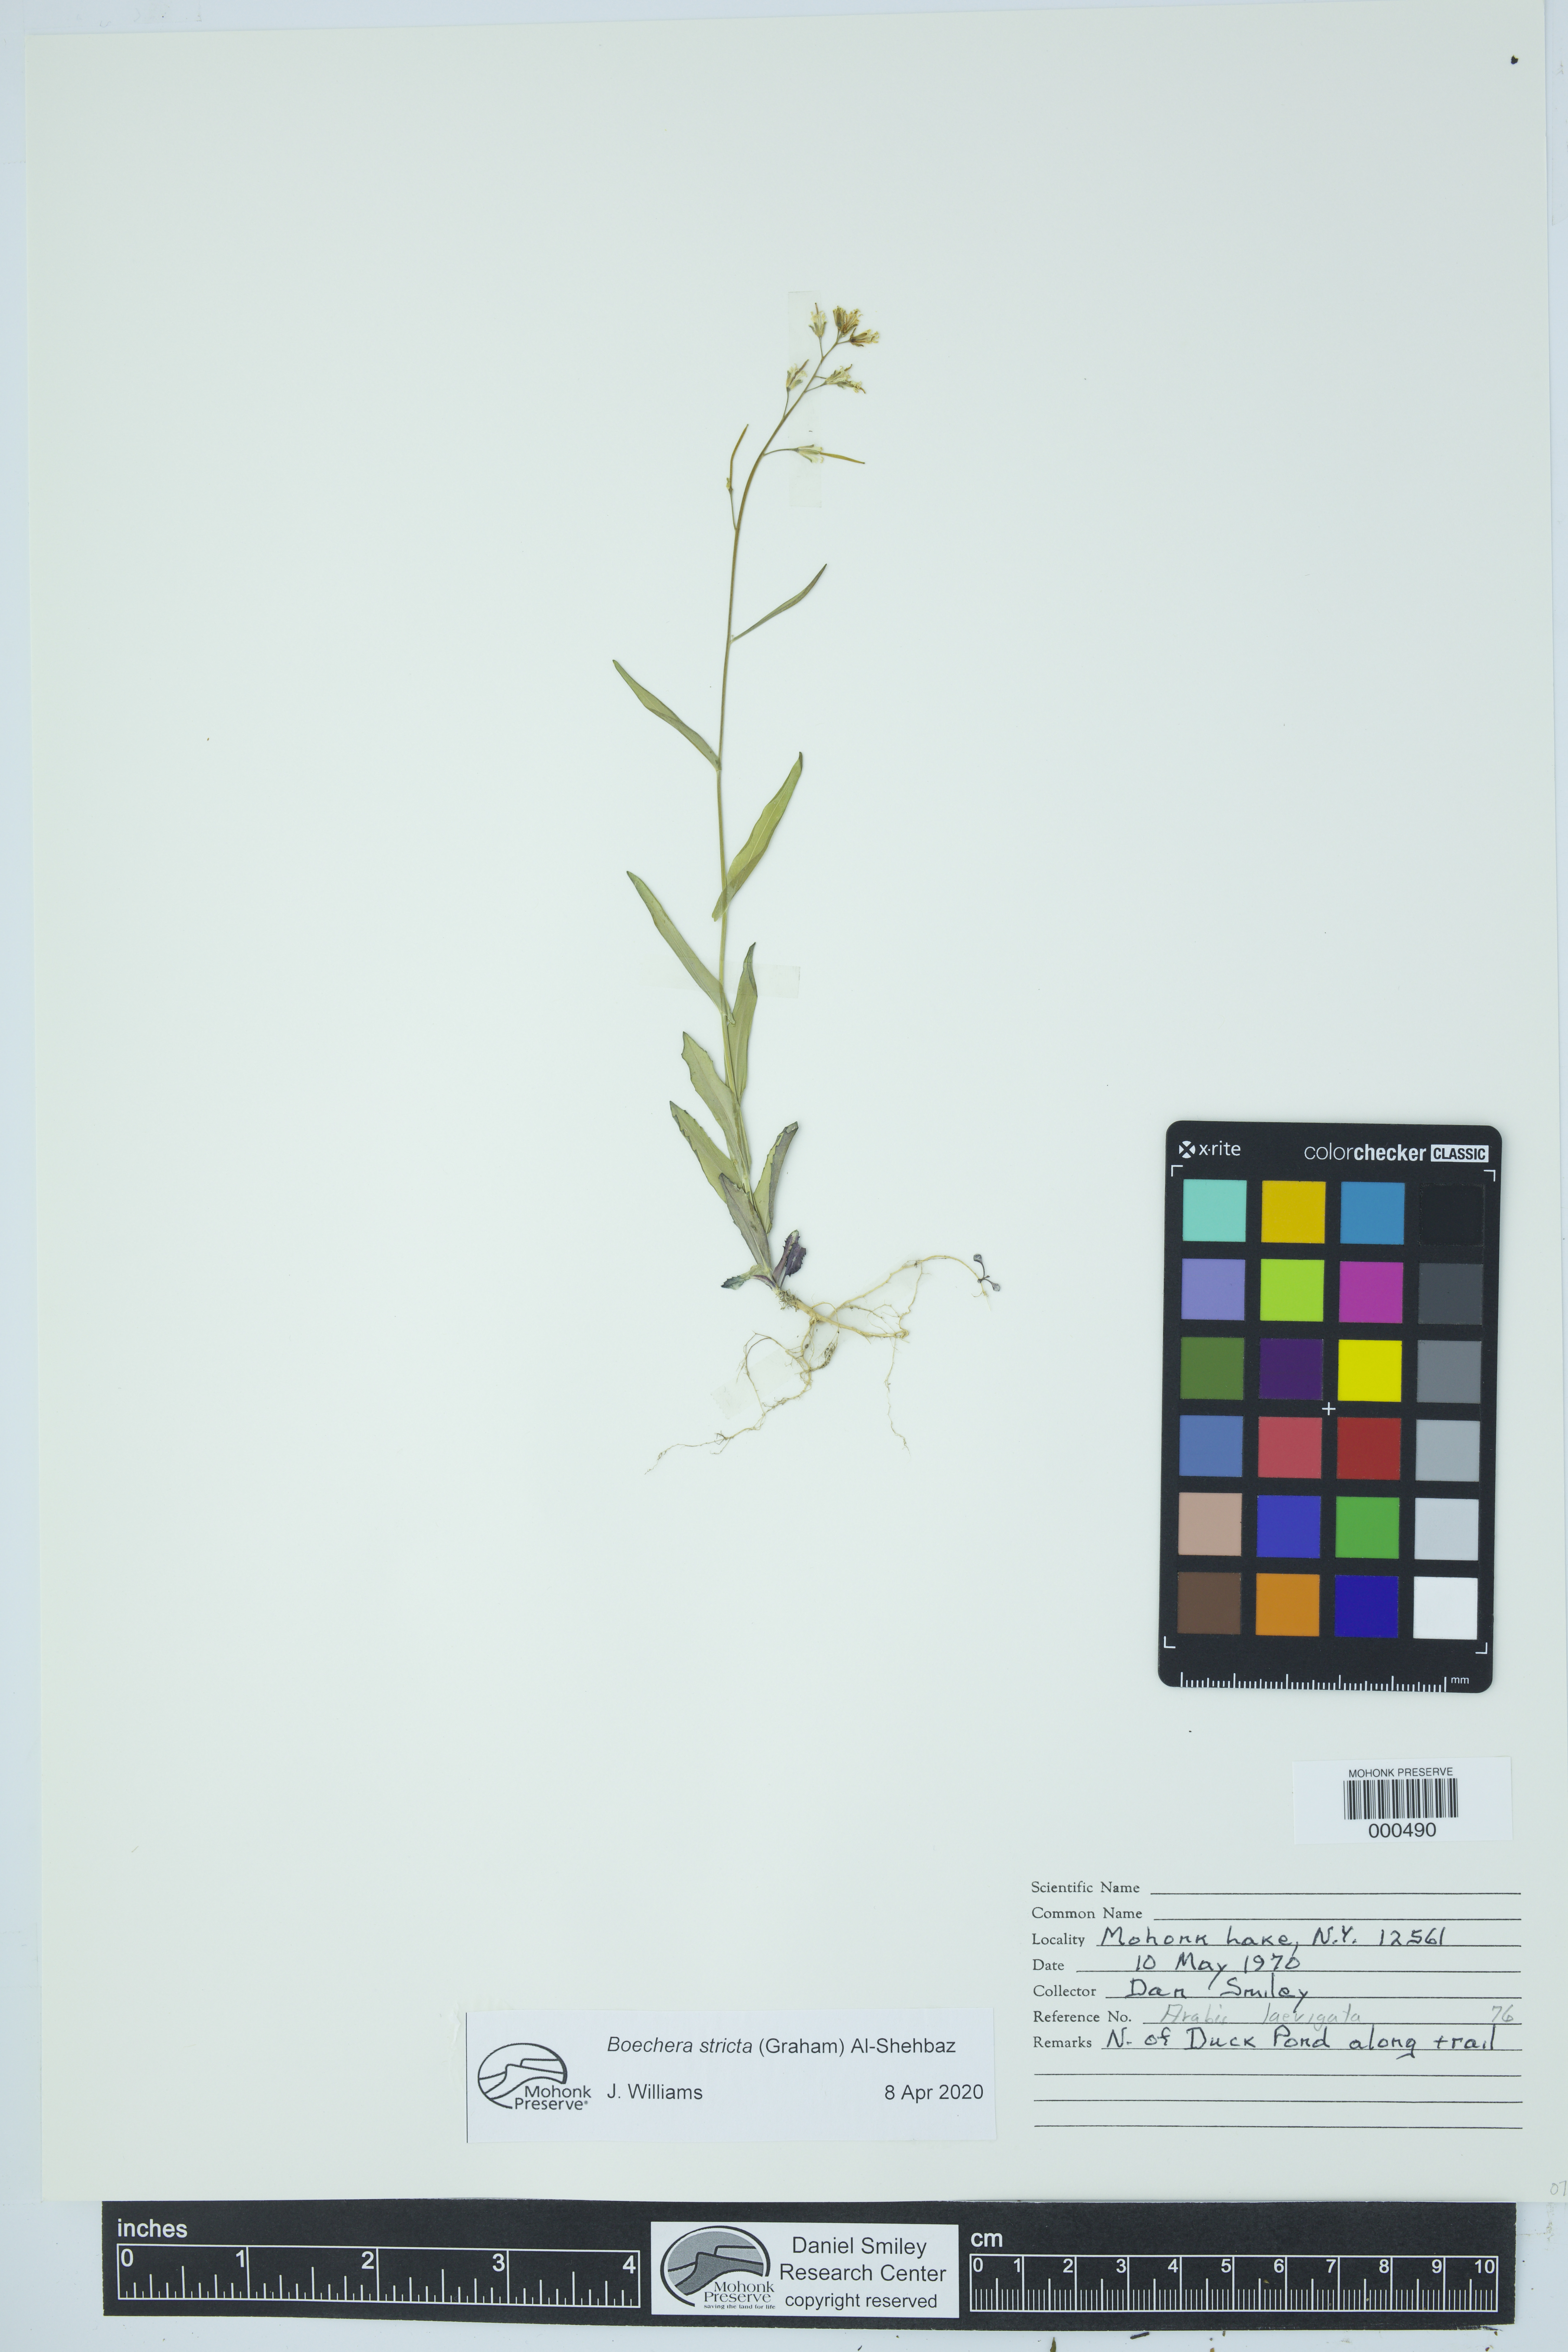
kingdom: Plantae
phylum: Tracheophyta
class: Magnoliopsida
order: Brassicales
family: Brassicaceae
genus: Boechera
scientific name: Boechera stricta
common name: Canadian rockcress
